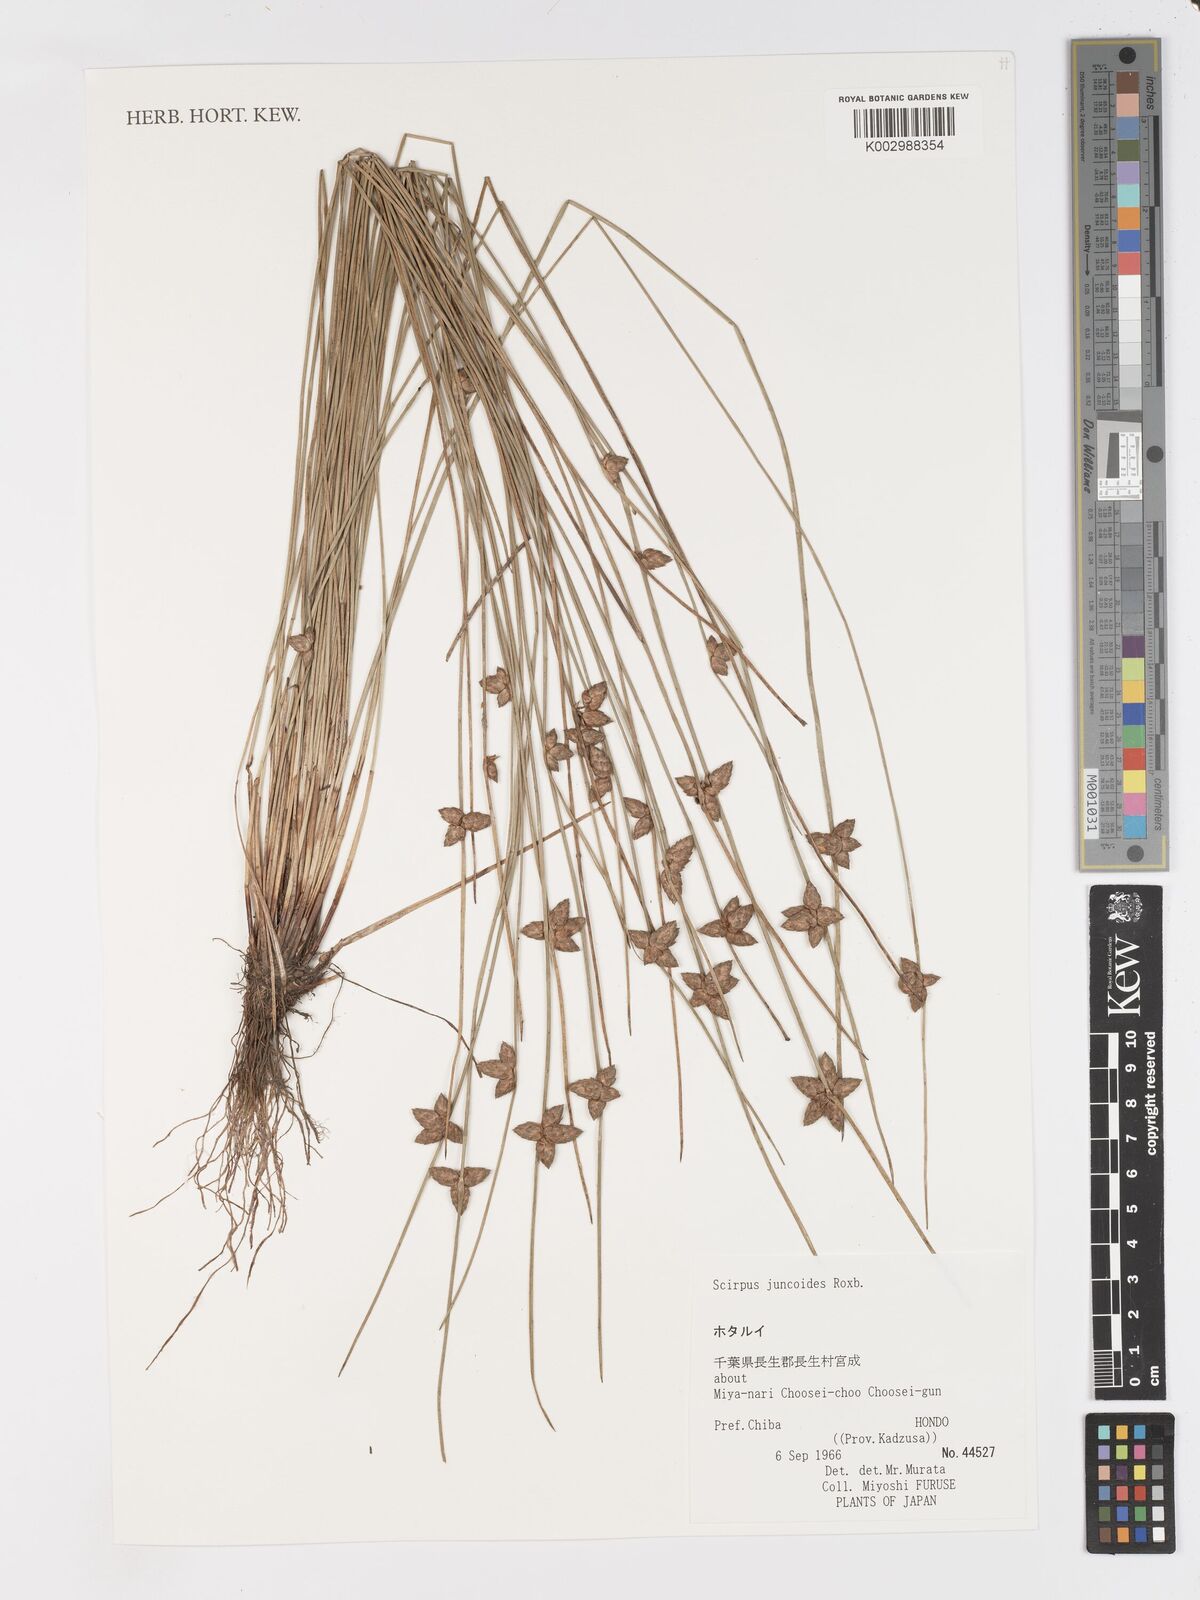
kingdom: Plantae
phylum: Tracheophyta
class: Liliopsida
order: Poales
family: Cyperaceae
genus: Schoenoplectiella
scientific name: Schoenoplectiella juncoides
